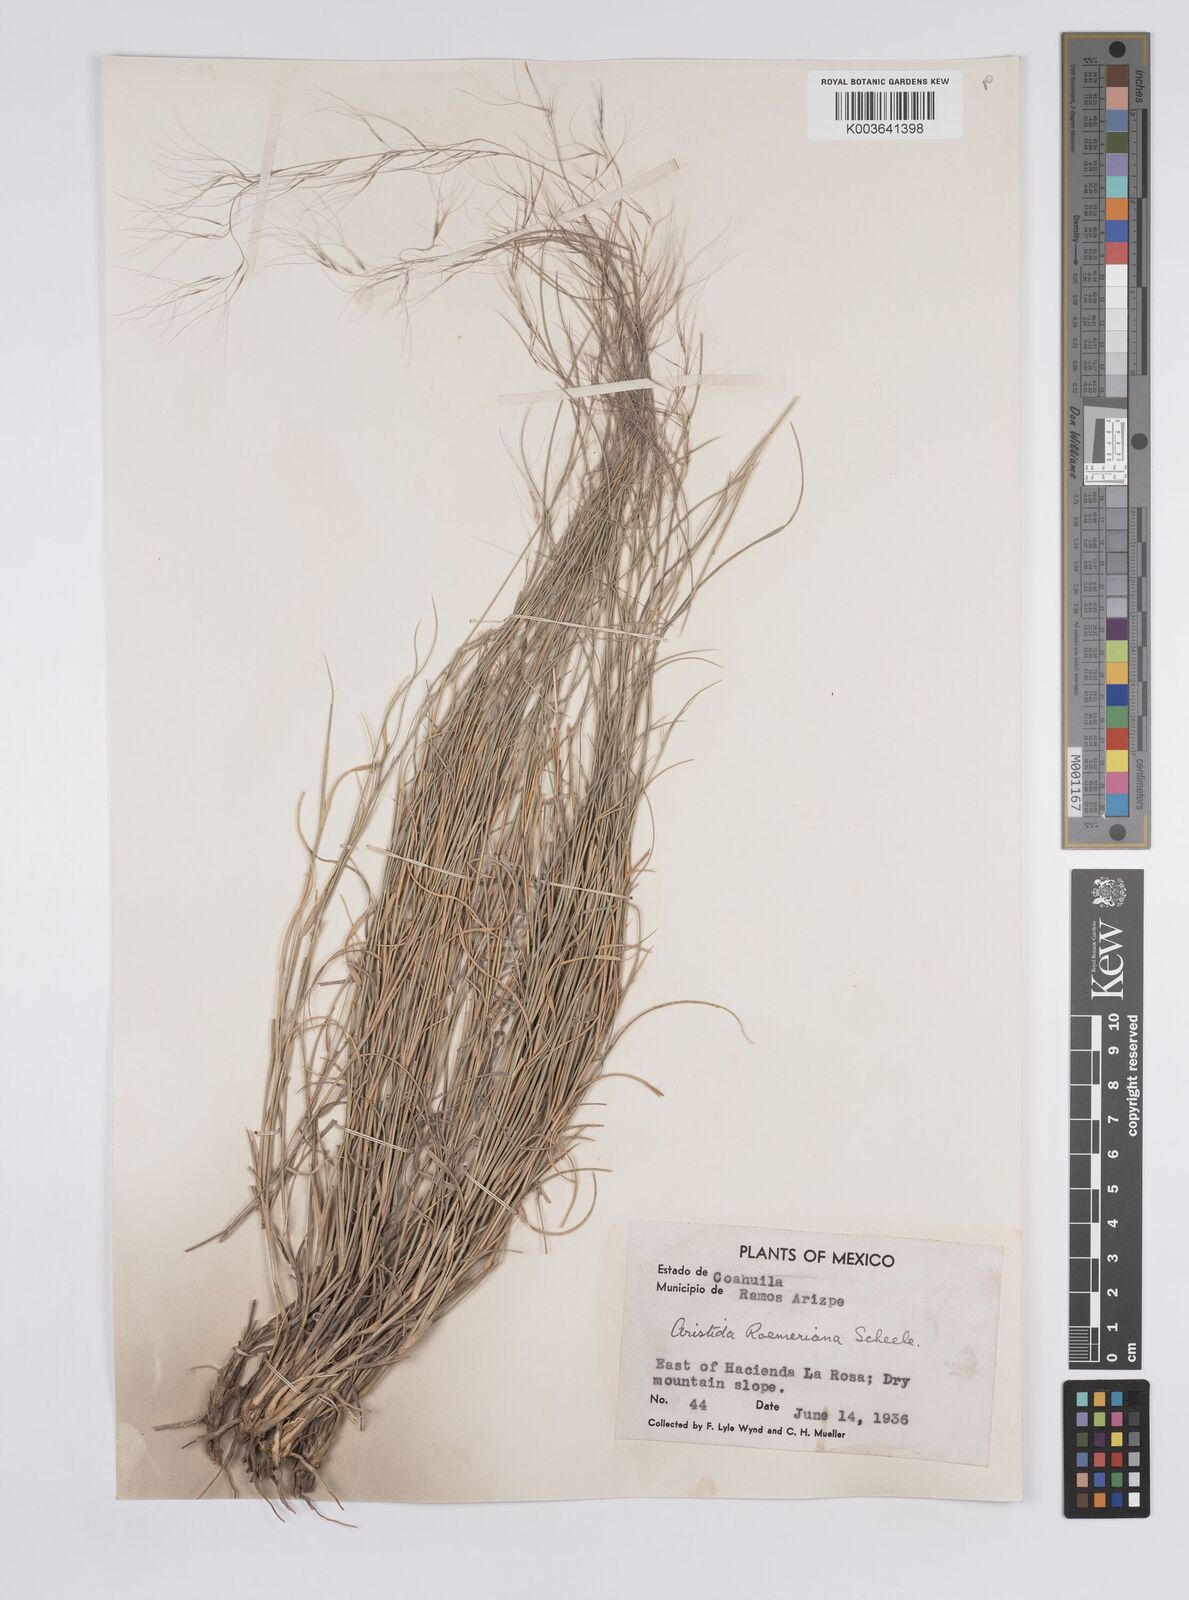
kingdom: Plantae
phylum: Tracheophyta
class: Liliopsida
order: Poales
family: Poaceae
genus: Aristida
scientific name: Aristida purpurea
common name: Purple threeawn
